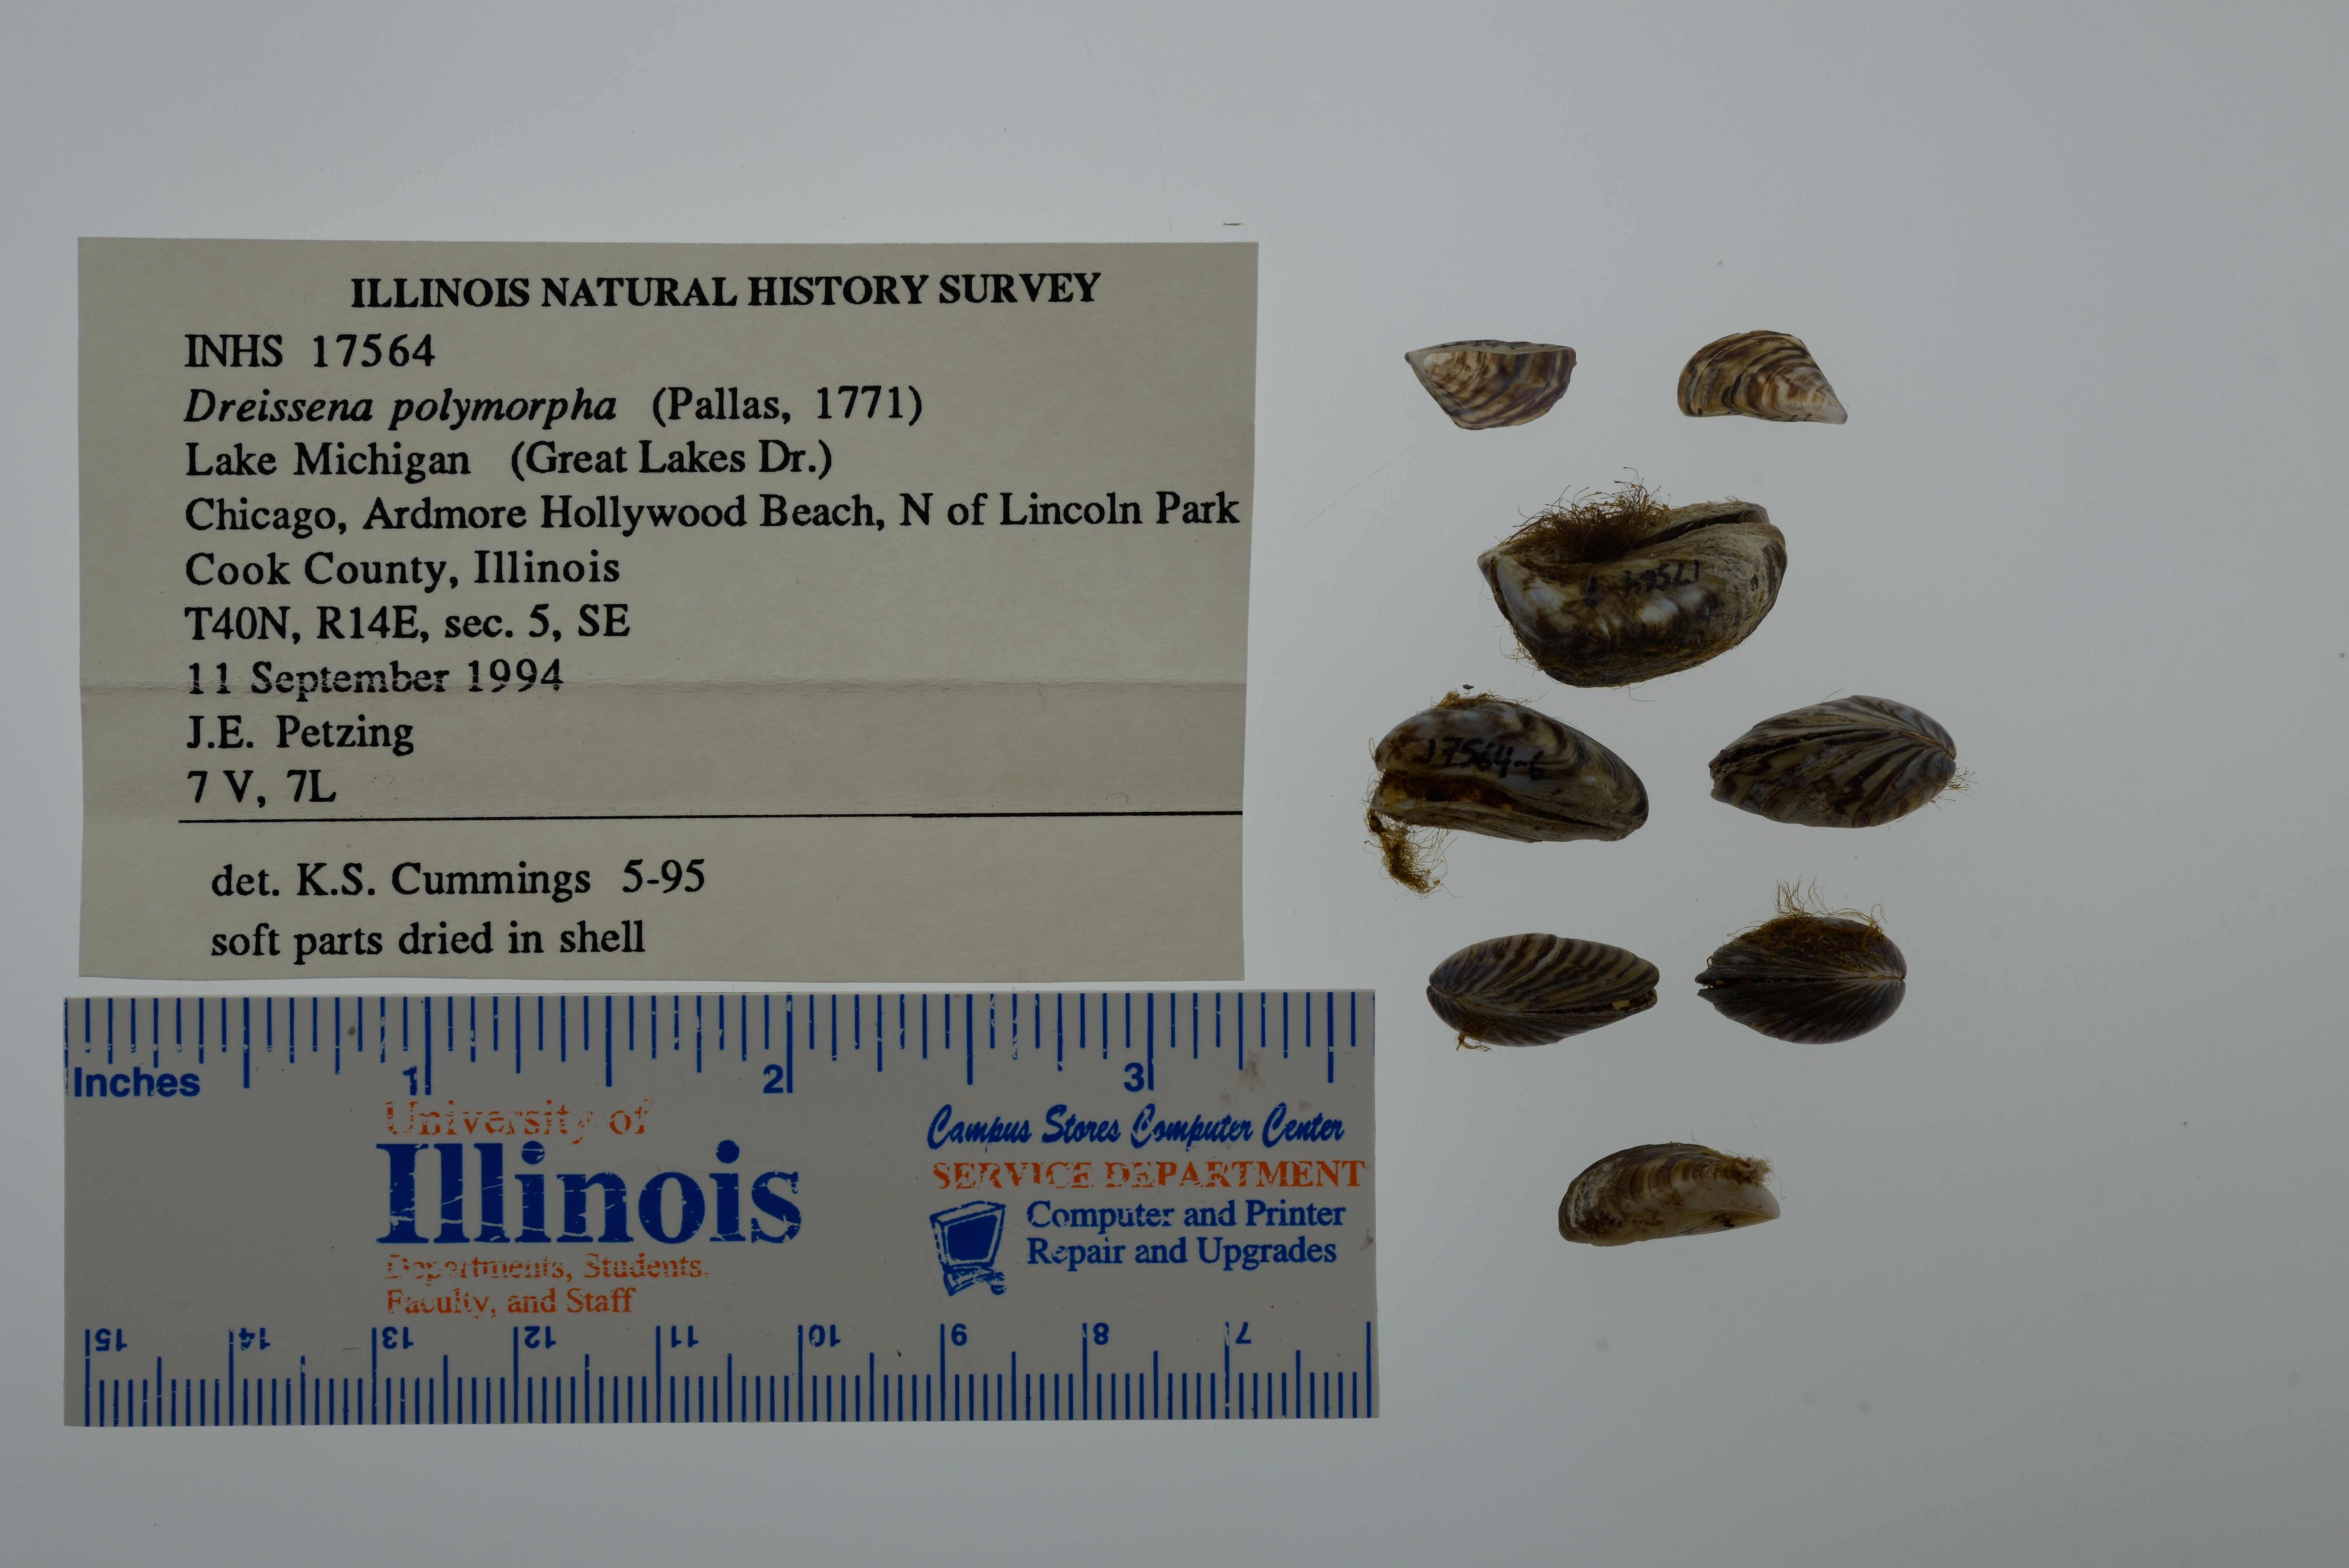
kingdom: Animalia
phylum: Mollusca
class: Bivalvia
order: Myida
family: Dreissenidae
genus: Dreissena
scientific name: Dreissena polymorpha
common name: Zebra mussel
